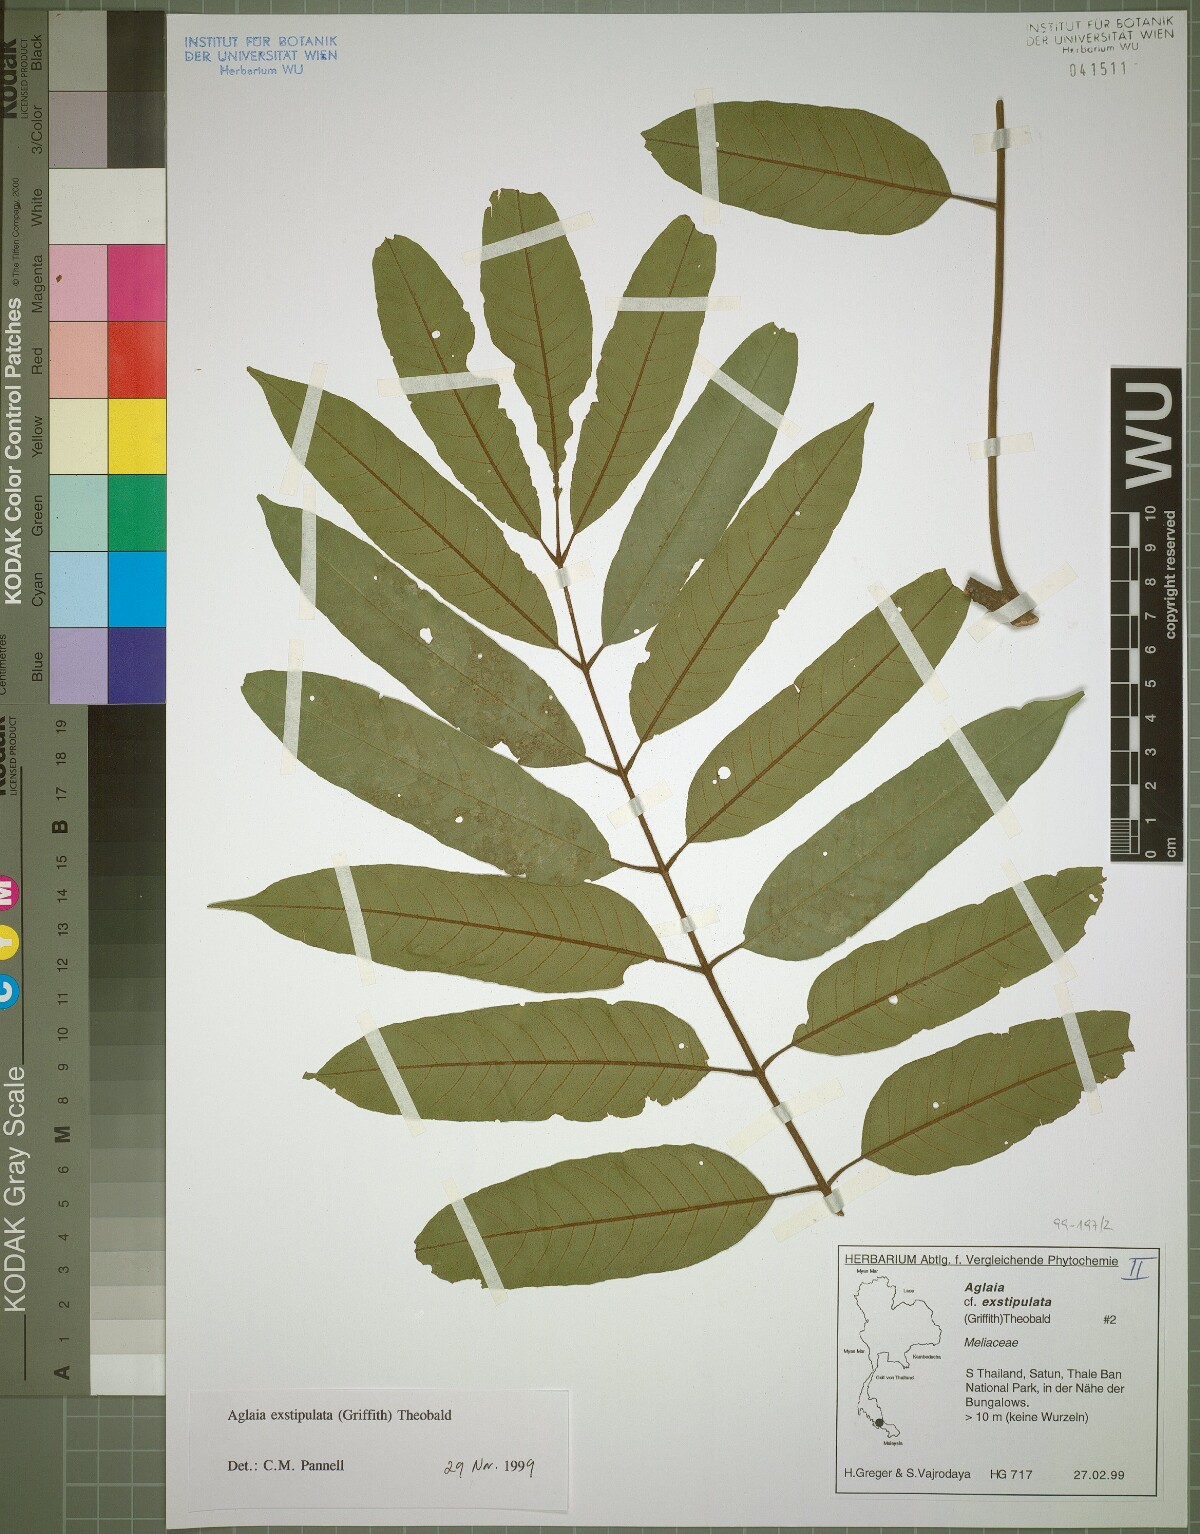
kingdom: Plantae
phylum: Tracheophyta
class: Magnoliopsida
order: Sapindales
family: Meliaceae
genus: Aglaia
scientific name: Aglaia exstipulata
